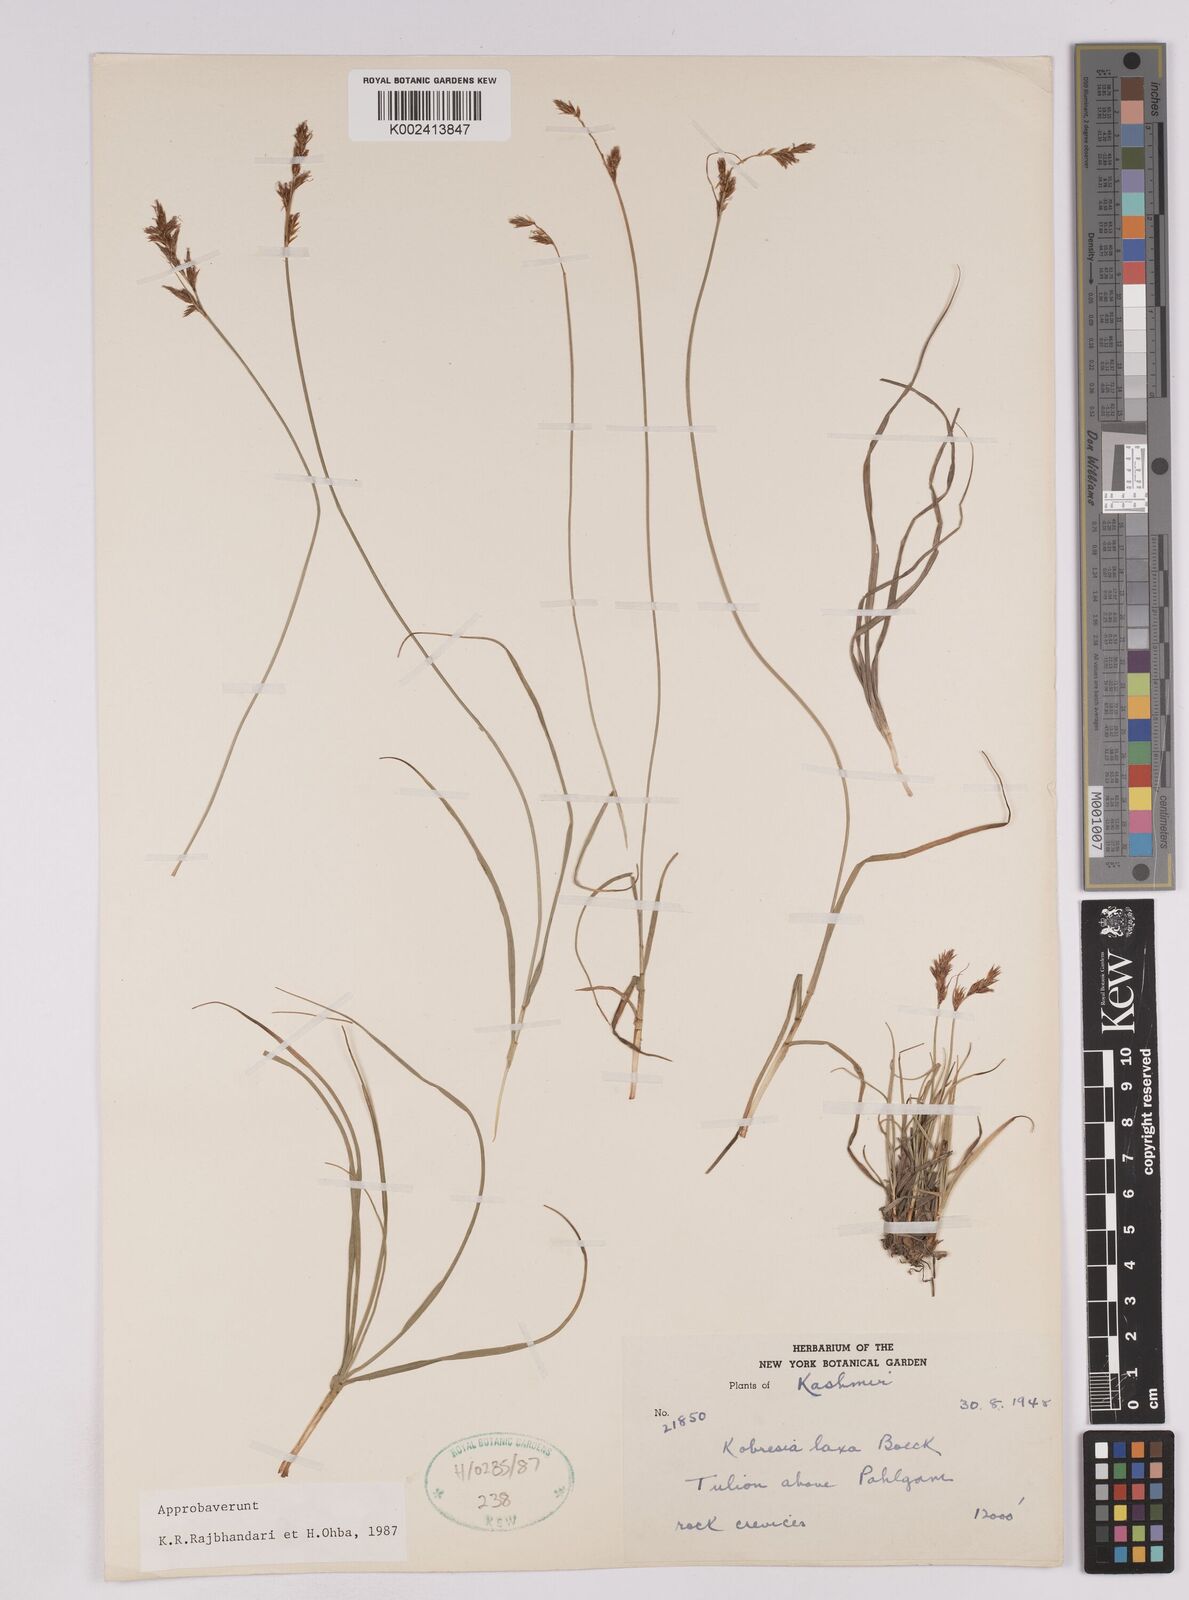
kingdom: Plantae
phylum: Tracheophyta
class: Liliopsida
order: Poales
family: Cyperaceae
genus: Carex
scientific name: Carex pseudolaxa
